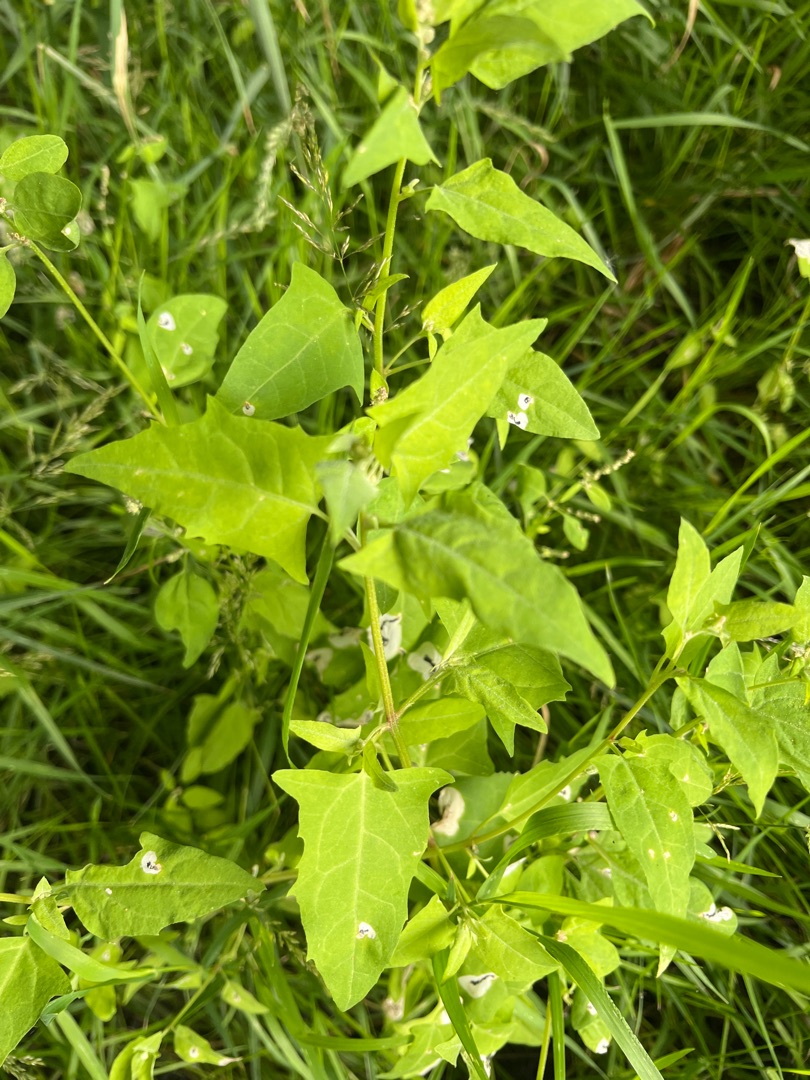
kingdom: Plantae
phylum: Tracheophyta
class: Magnoliopsida
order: Caryophyllales
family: Amaranthaceae
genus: Atriplex
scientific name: Atriplex prostrata
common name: Spyd-mælde
